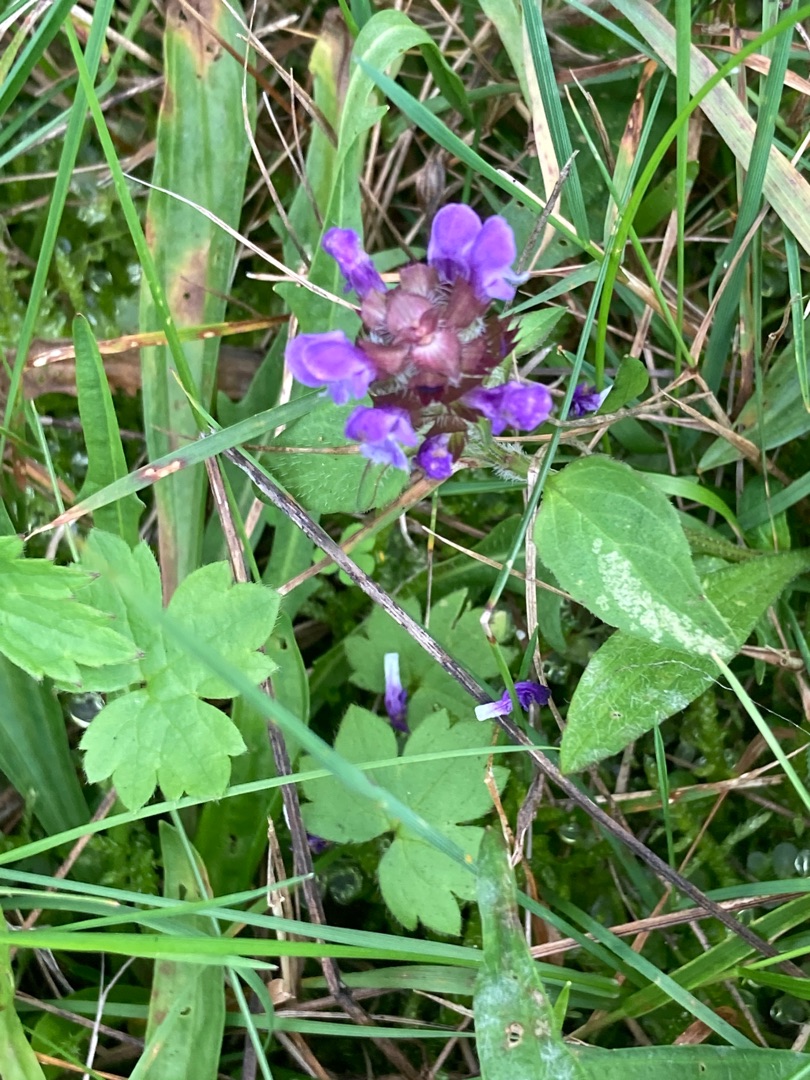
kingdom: Plantae
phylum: Tracheophyta
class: Magnoliopsida
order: Lamiales
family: Lamiaceae
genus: Prunella
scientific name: Prunella vulgaris
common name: Almindelig brunelle
